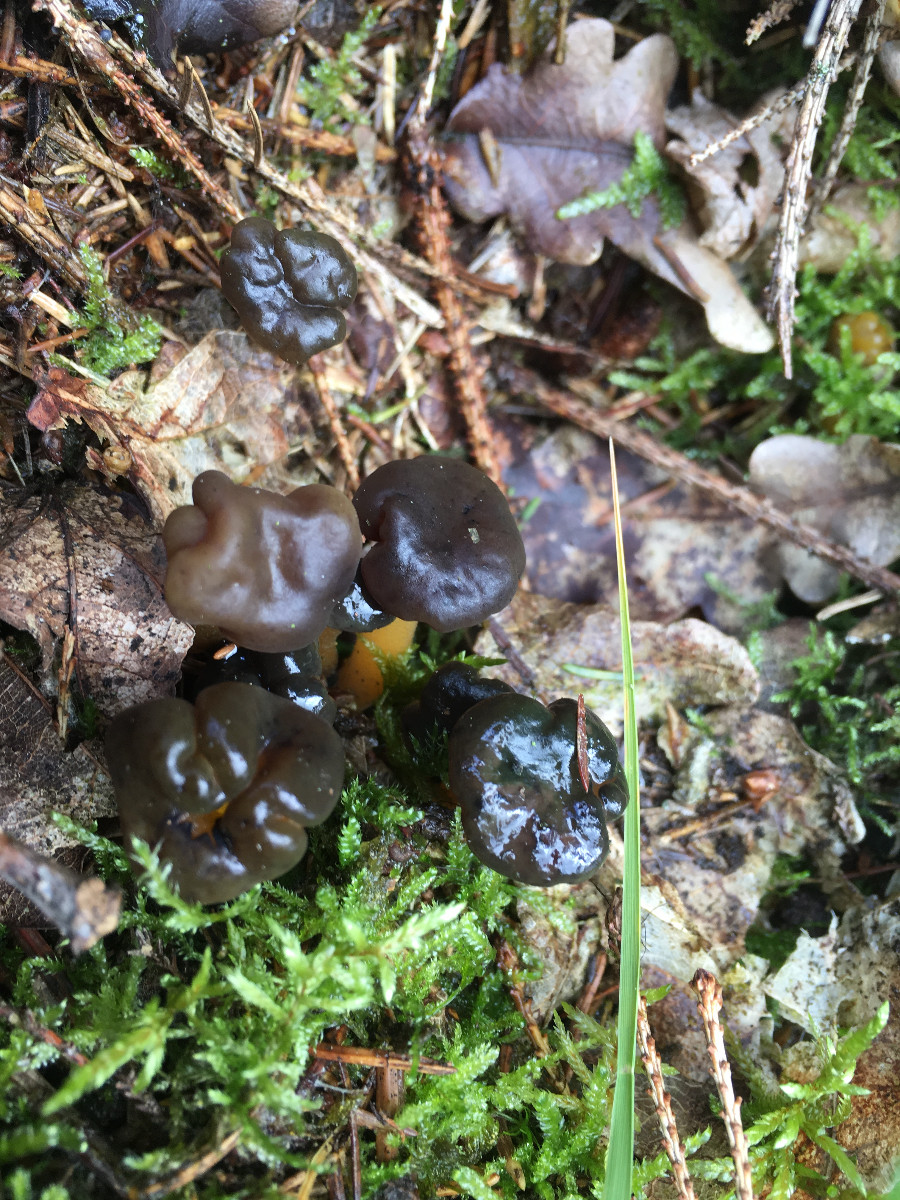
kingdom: Fungi
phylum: Ascomycota
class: Leotiomycetes
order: Leotiales
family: Leotiaceae
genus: Leotia
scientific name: Leotia
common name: ravsvamp
